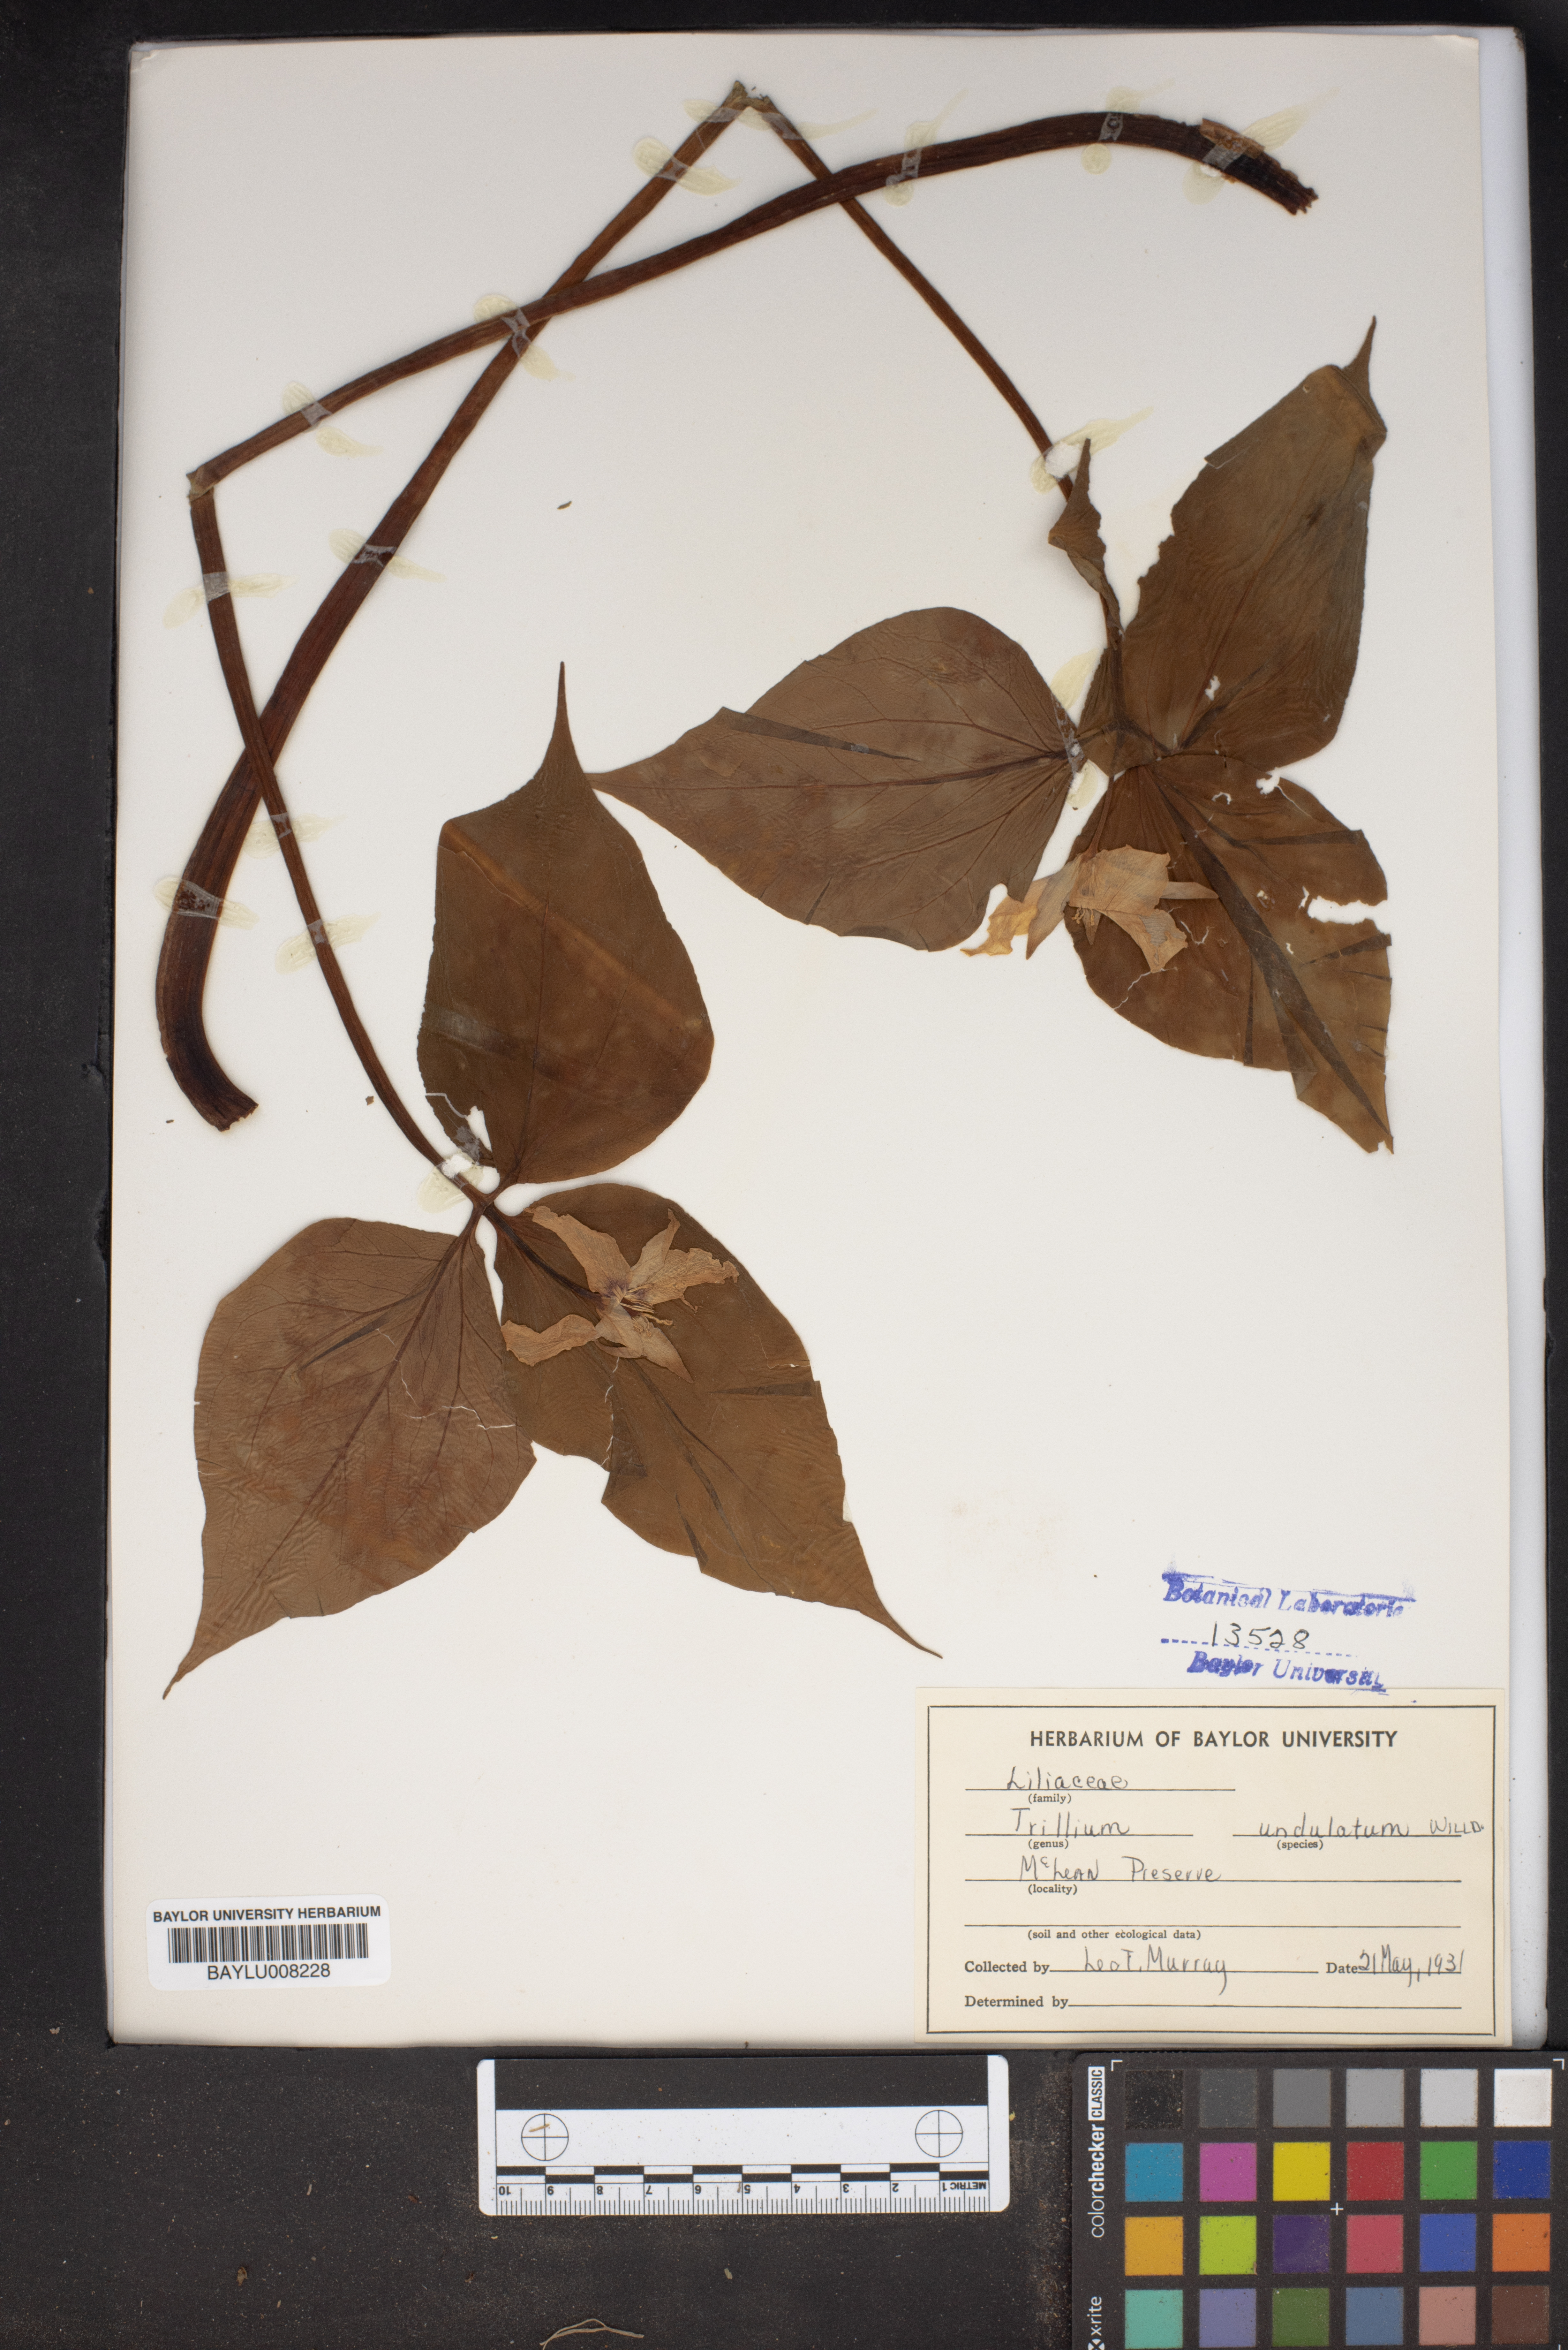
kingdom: Plantae
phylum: Tracheophyta
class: Liliopsida
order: Liliales
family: Melanthiaceae
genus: Trillium
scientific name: Trillium undulatum
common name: Paint trillium
